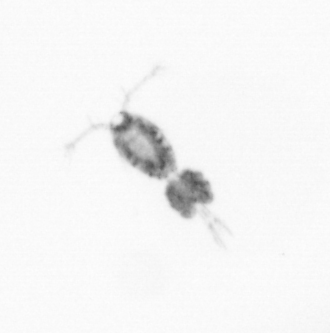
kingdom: Animalia
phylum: Arthropoda
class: Copepoda
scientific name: Copepoda
